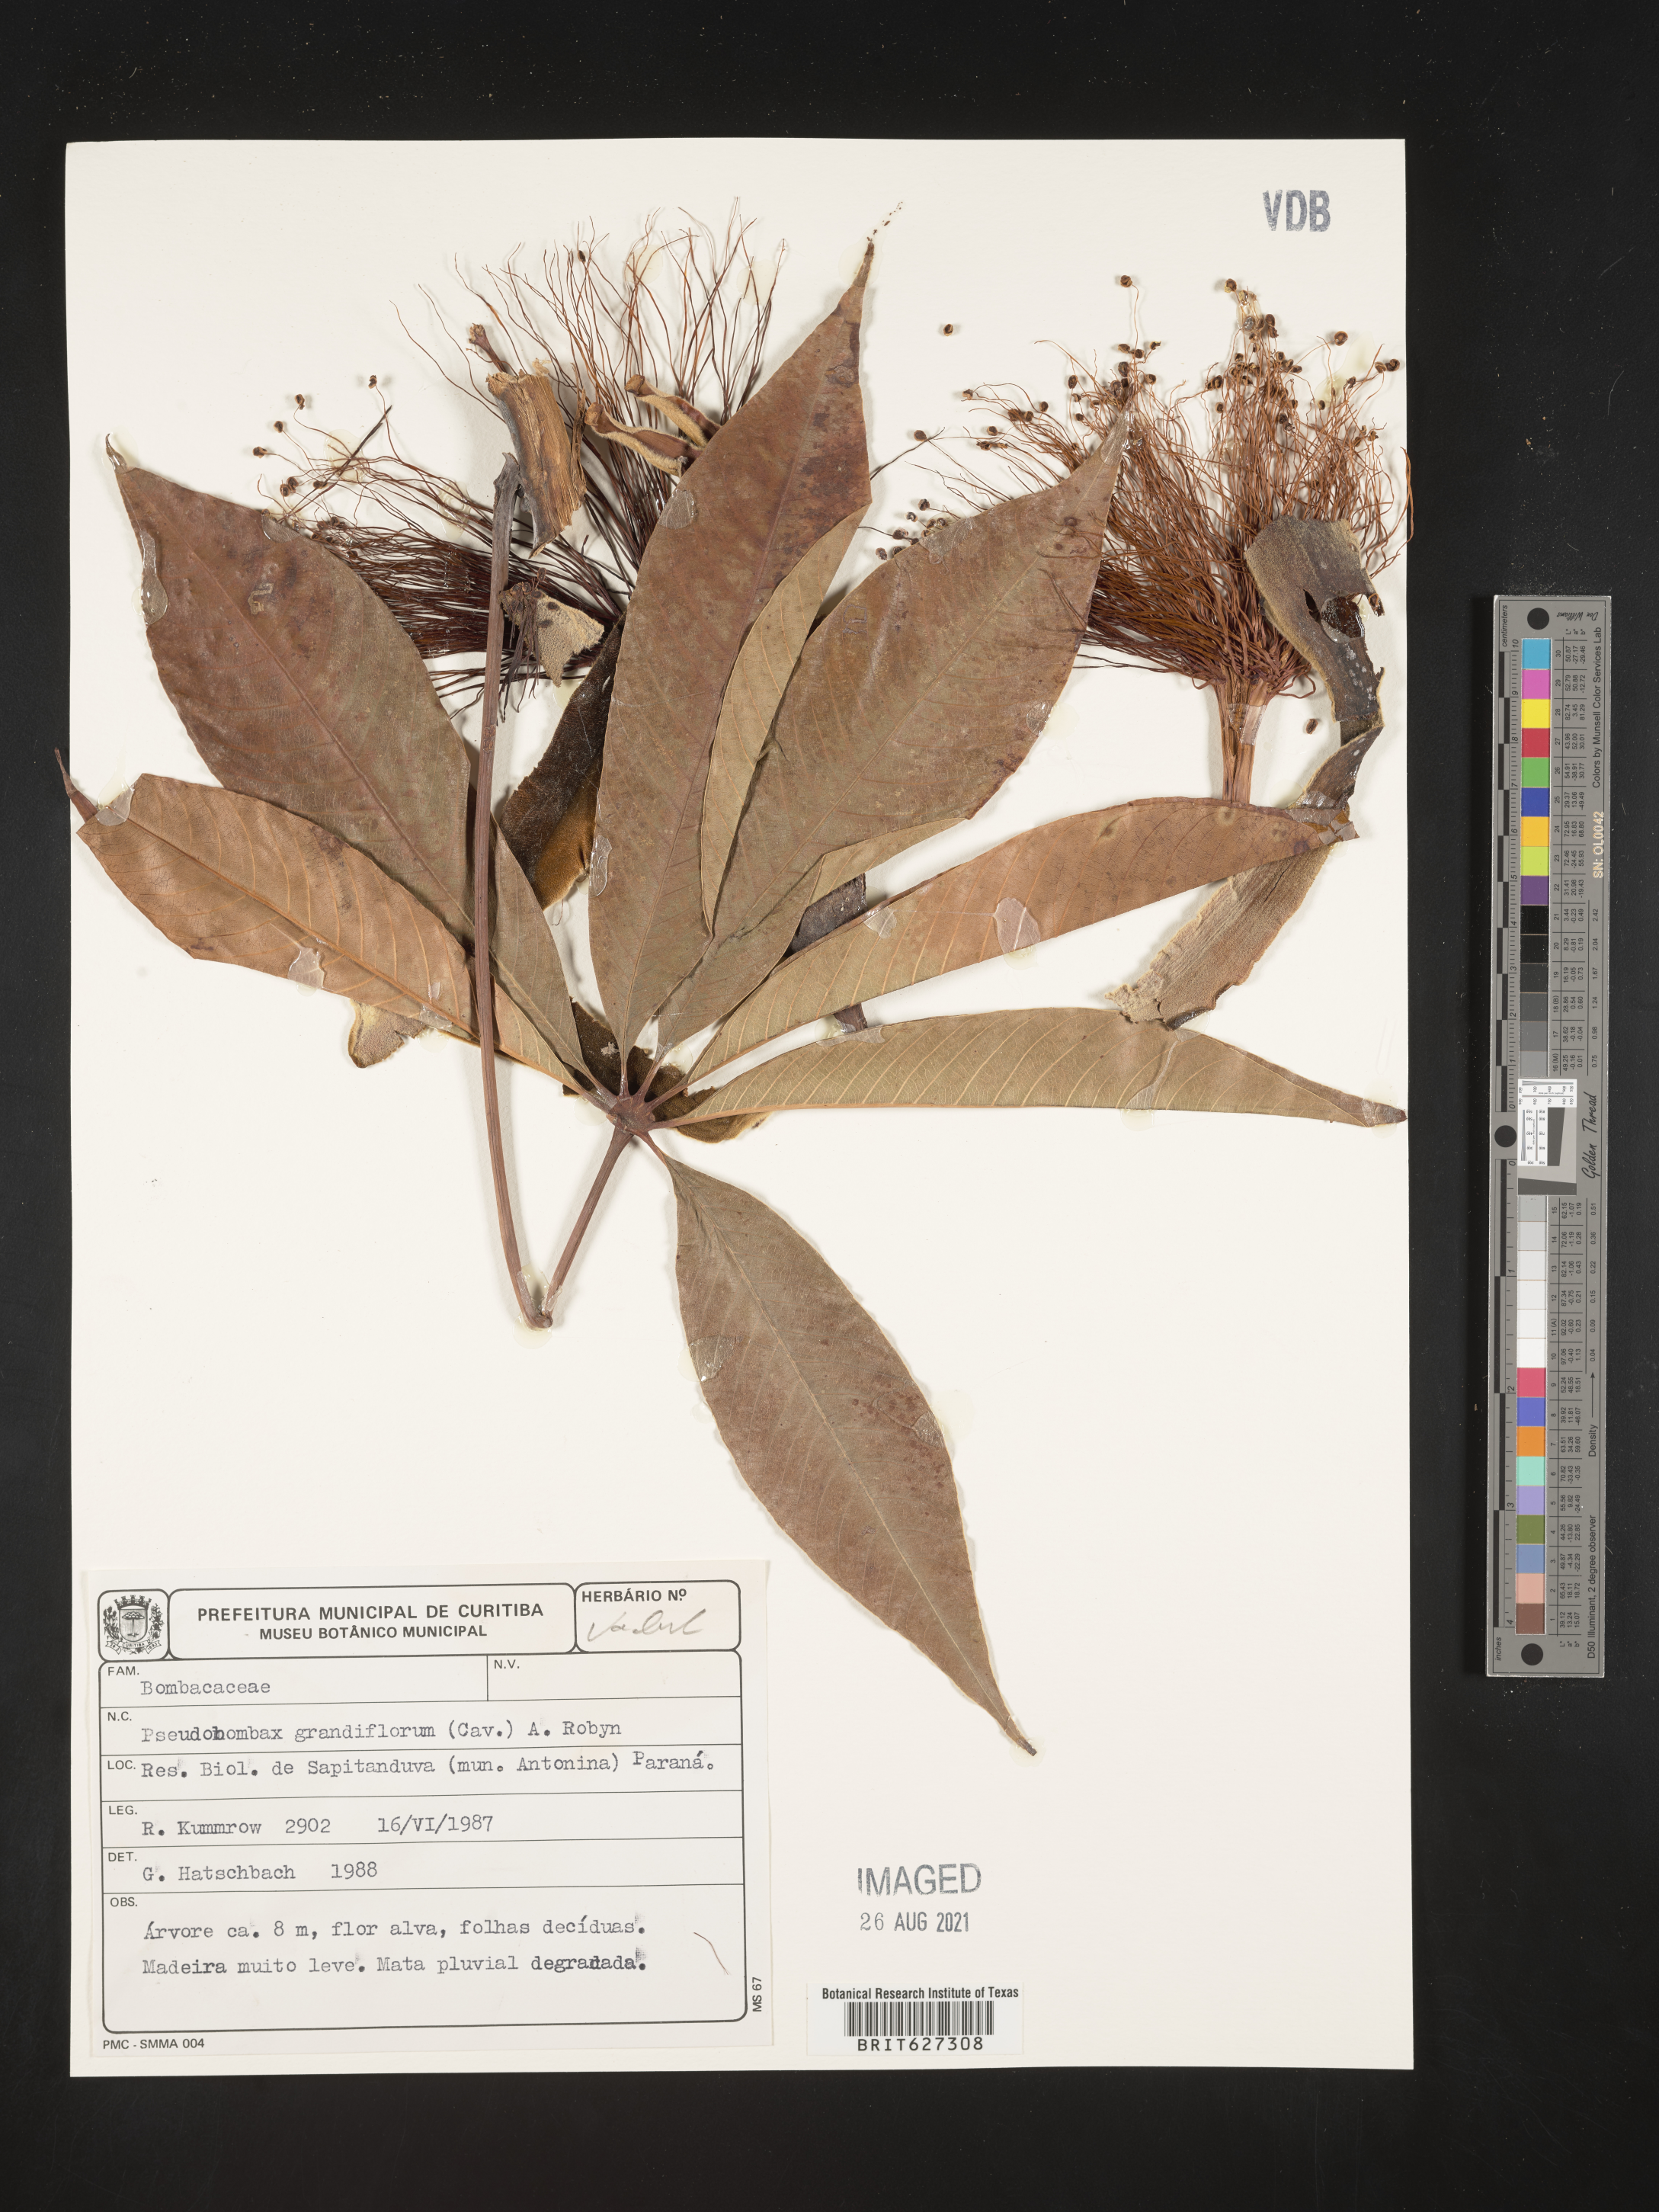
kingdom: Plantae
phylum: Tracheophyta
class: Magnoliopsida
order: Malvales
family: Malvaceae
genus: Pseudobombax
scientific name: Pseudobombax
